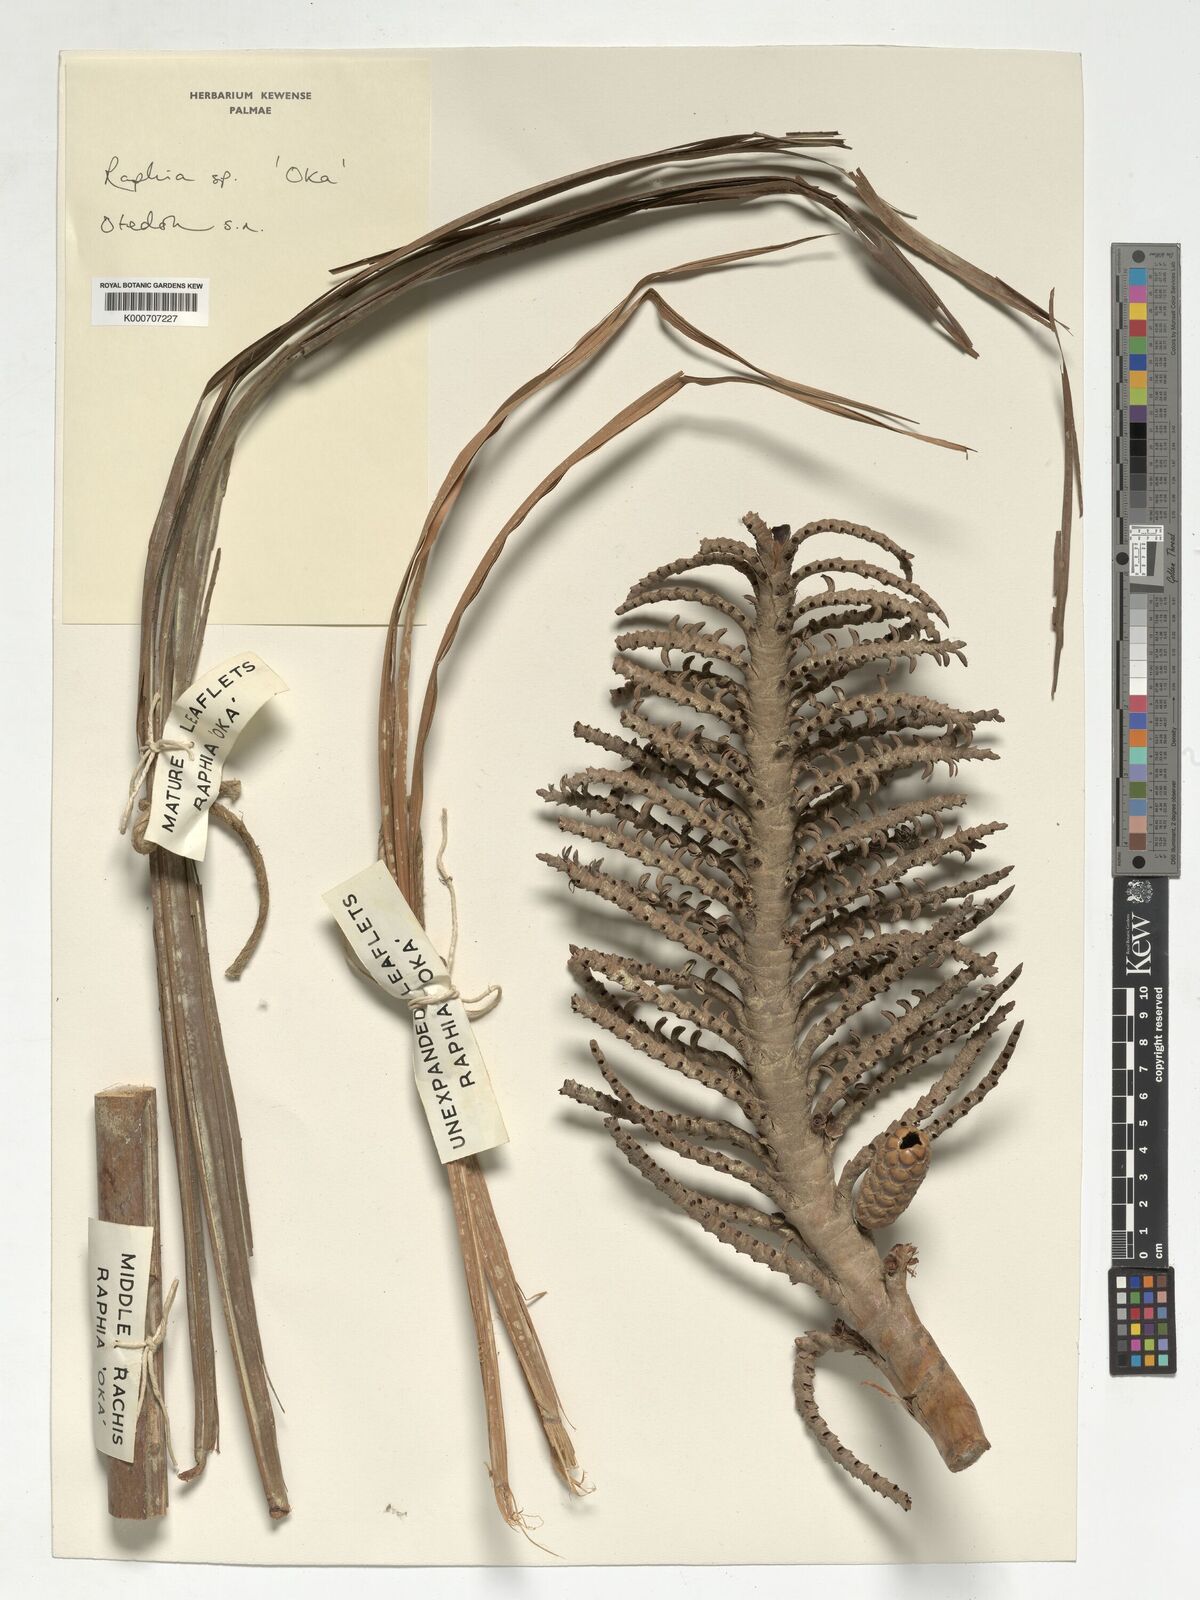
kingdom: Plantae
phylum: Tracheophyta
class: Liliopsida
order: Arecales
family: Arecaceae
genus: Raphia
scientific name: Raphia
